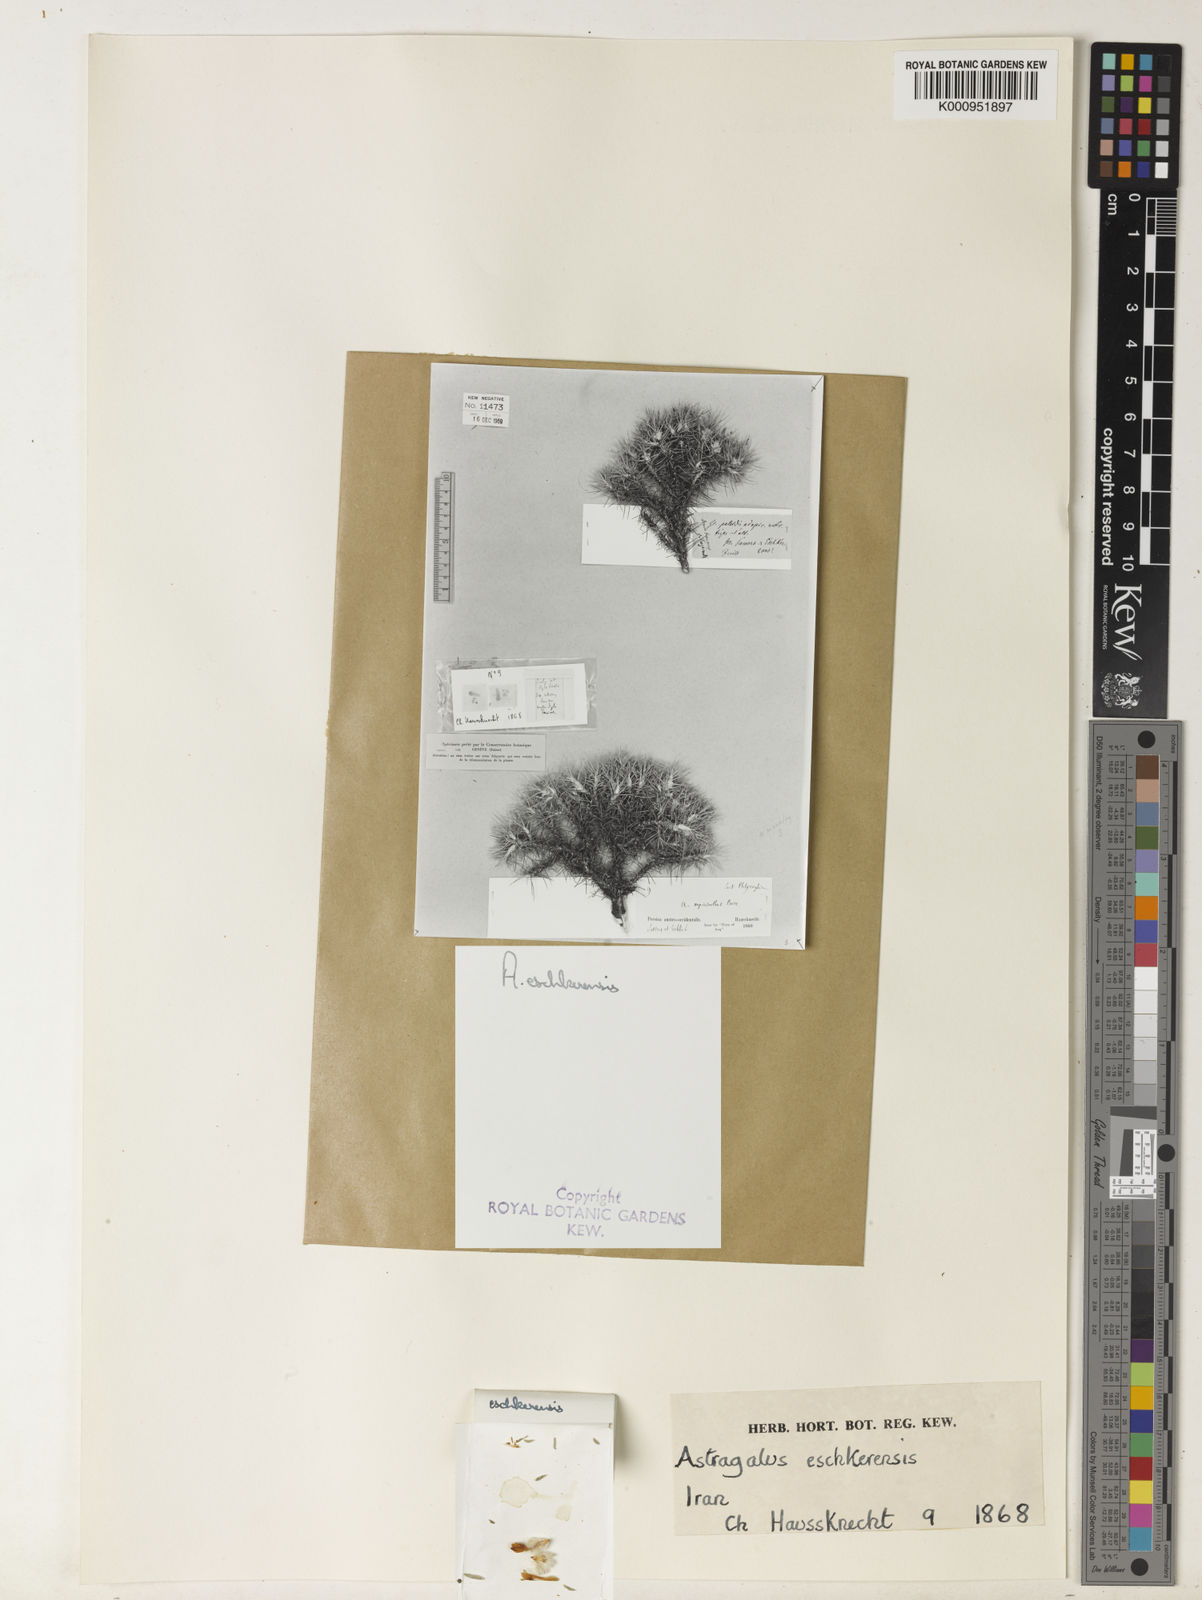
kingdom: Plantae
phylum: Tracheophyta
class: Magnoliopsida
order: Fabales
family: Fabaceae
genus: Astragalus
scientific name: Astragalus myriacanthus
